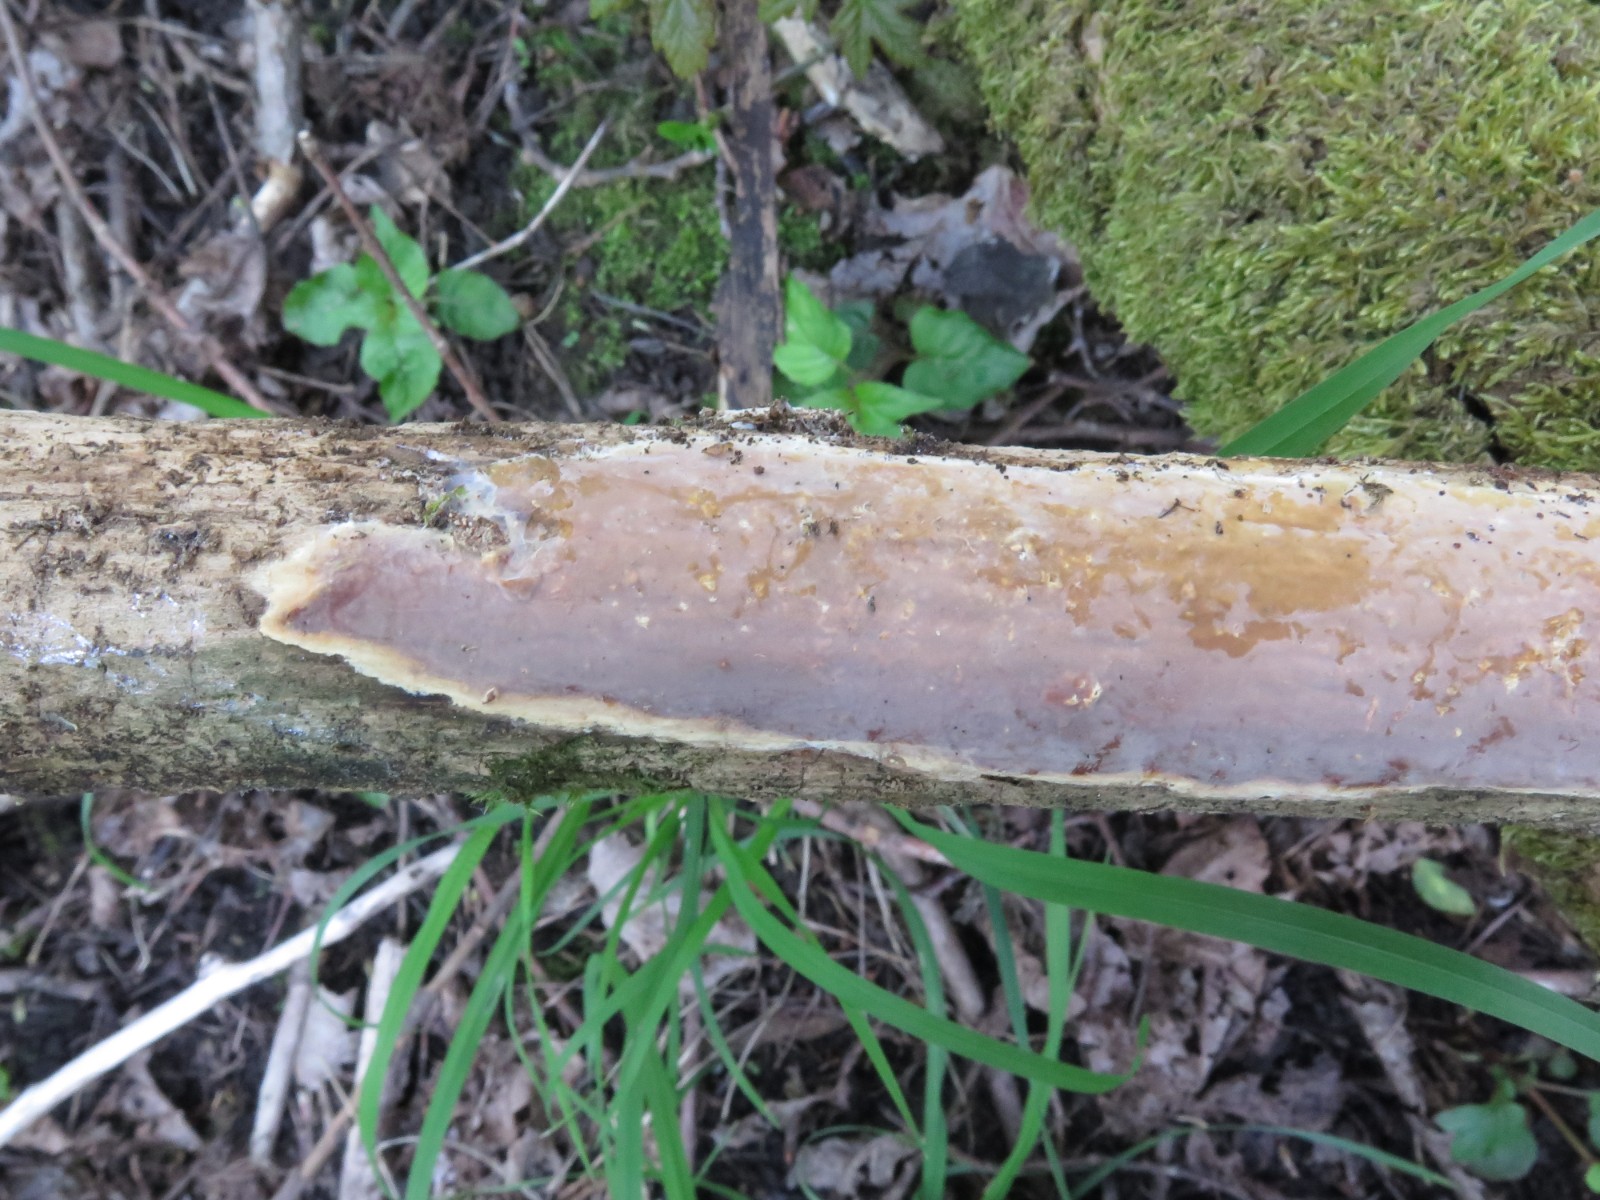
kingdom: Fungi
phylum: Basidiomycota
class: Agaricomycetes
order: Russulales
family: Peniophoraceae
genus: Scytinostroma
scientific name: Scytinostroma hemidichophyticum
